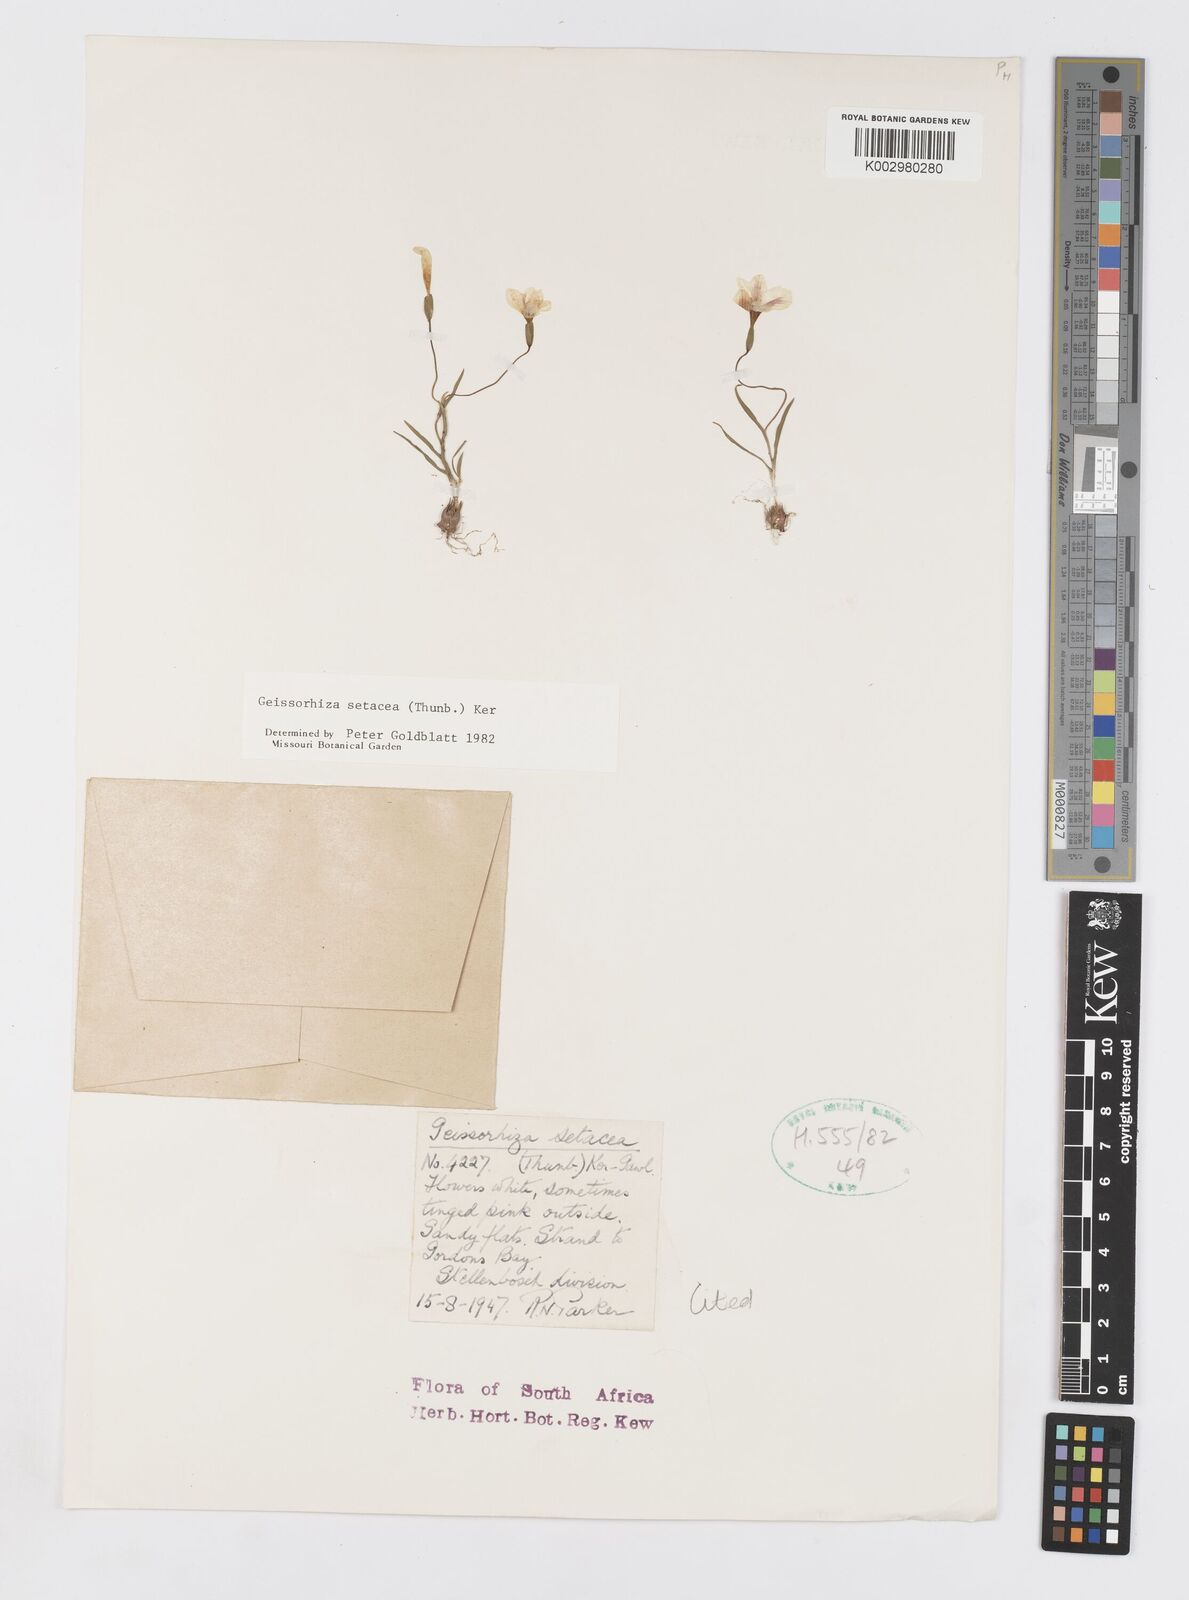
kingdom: Plantae
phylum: Tracheophyta
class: Liliopsida
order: Asparagales
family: Iridaceae
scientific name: Iridaceae
